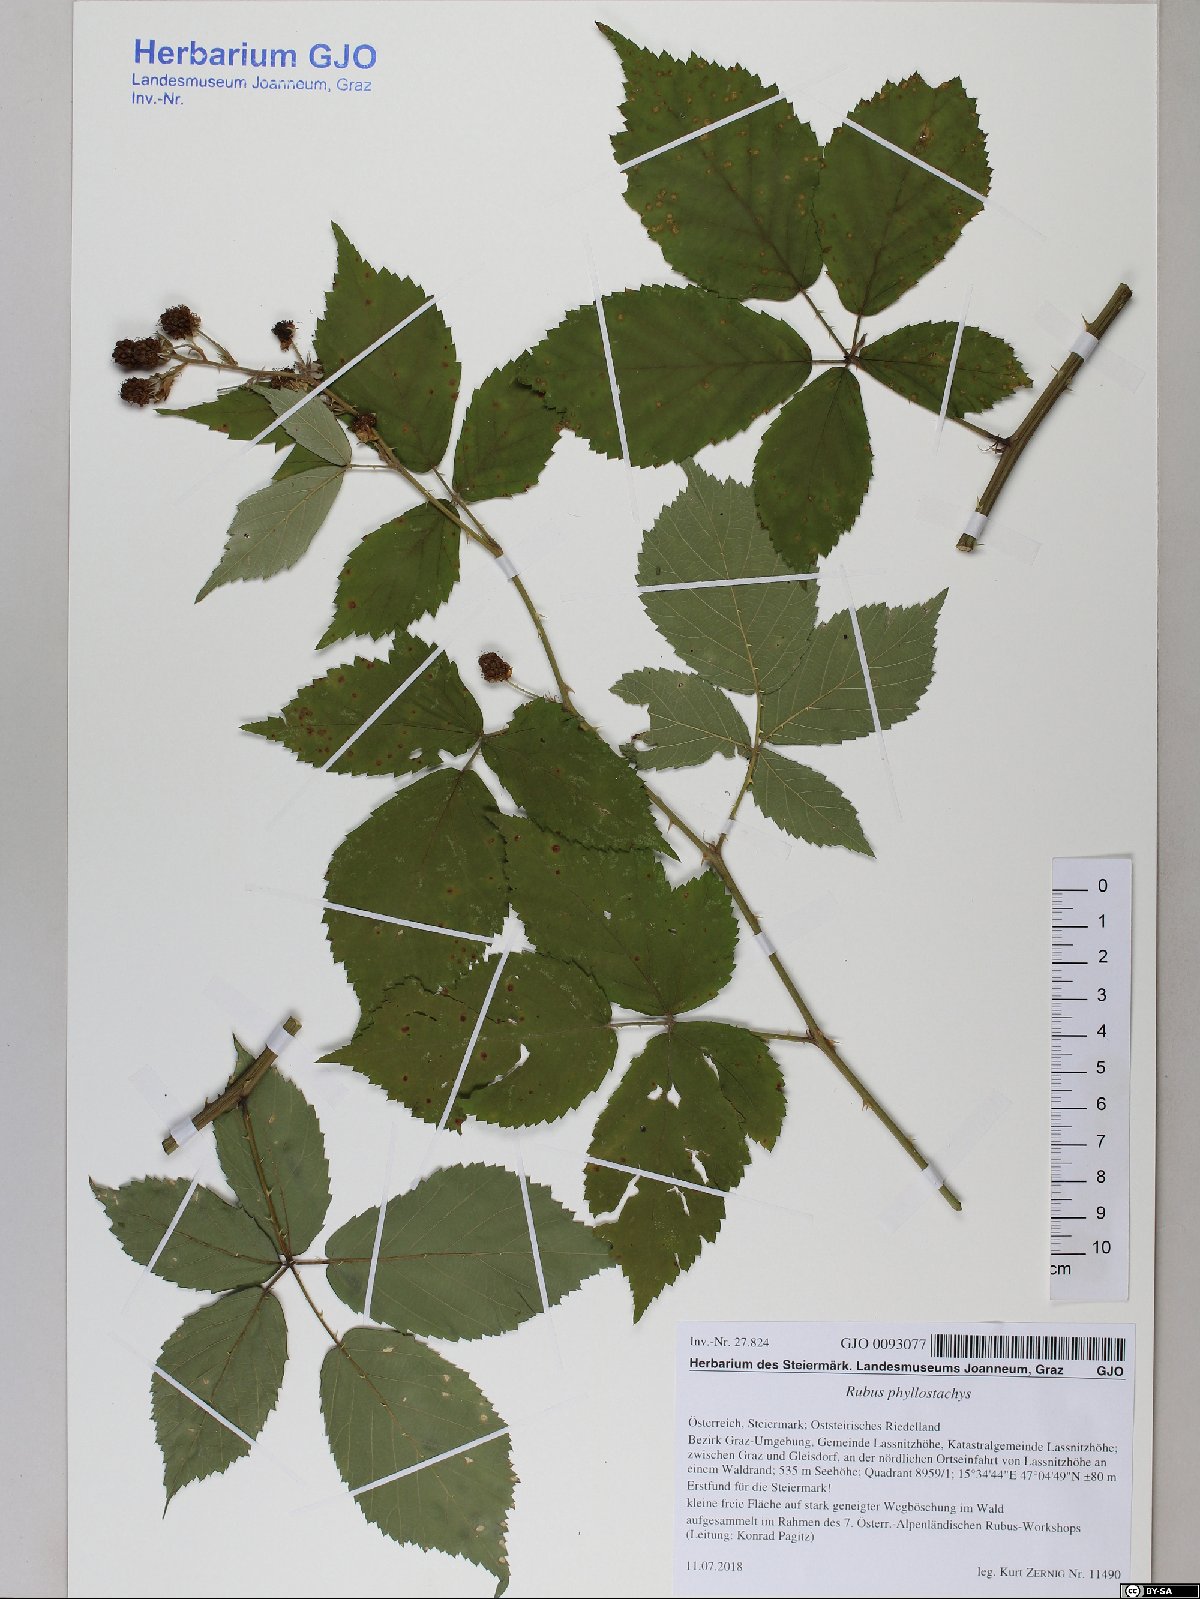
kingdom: Plantae
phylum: Tracheophyta
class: Magnoliopsida
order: Rosales
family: Rosaceae
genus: Rubus
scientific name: Rubus phyllostachys
